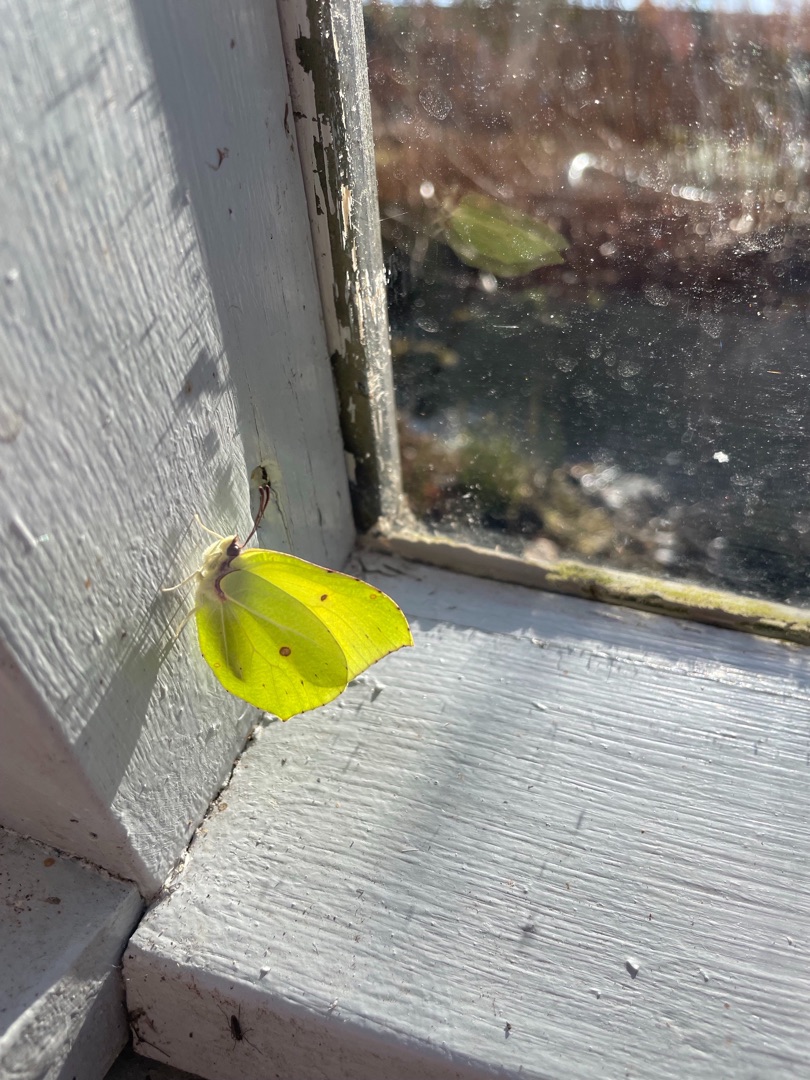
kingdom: Animalia
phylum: Arthropoda
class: Insecta
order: Lepidoptera
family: Pieridae
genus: Gonepteryx
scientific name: Gonepteryx rhamni
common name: Citronsommerfugl
